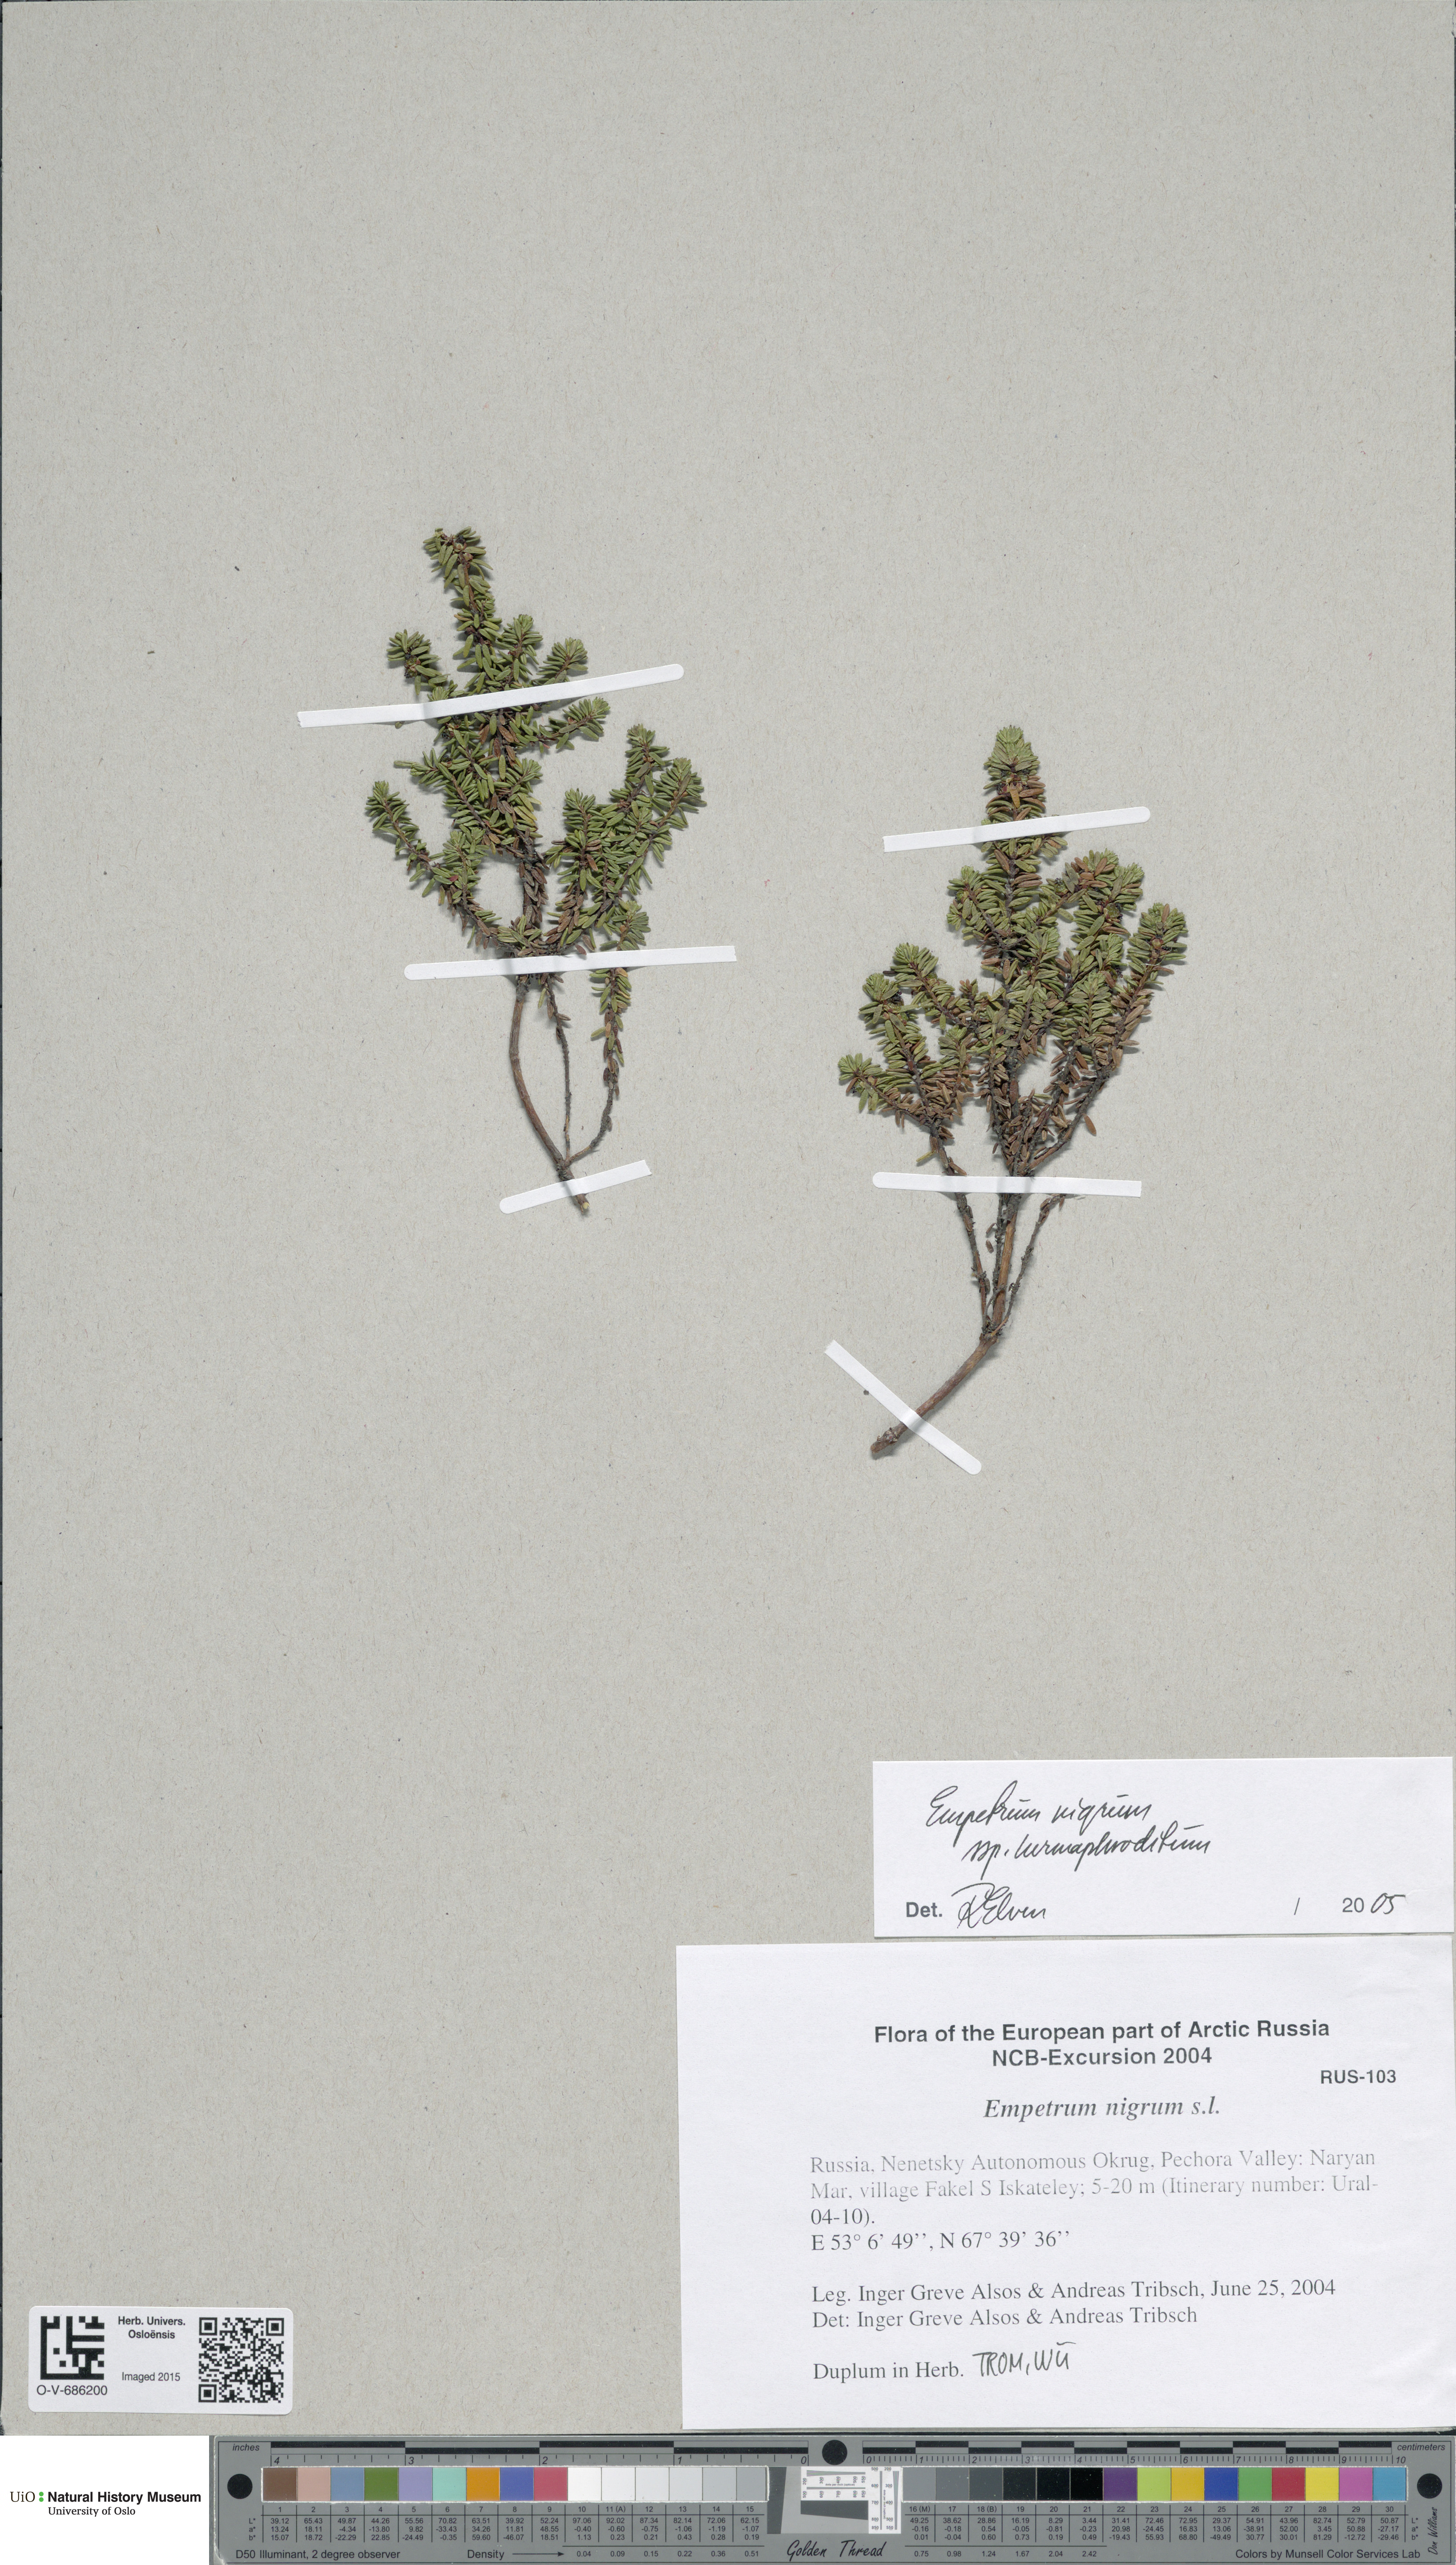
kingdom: Plantae
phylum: Tracheophyta
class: Magnoliopsida
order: Ericales
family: Ericaceae
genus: Empetrum
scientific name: Empetrum hermaphroditum
